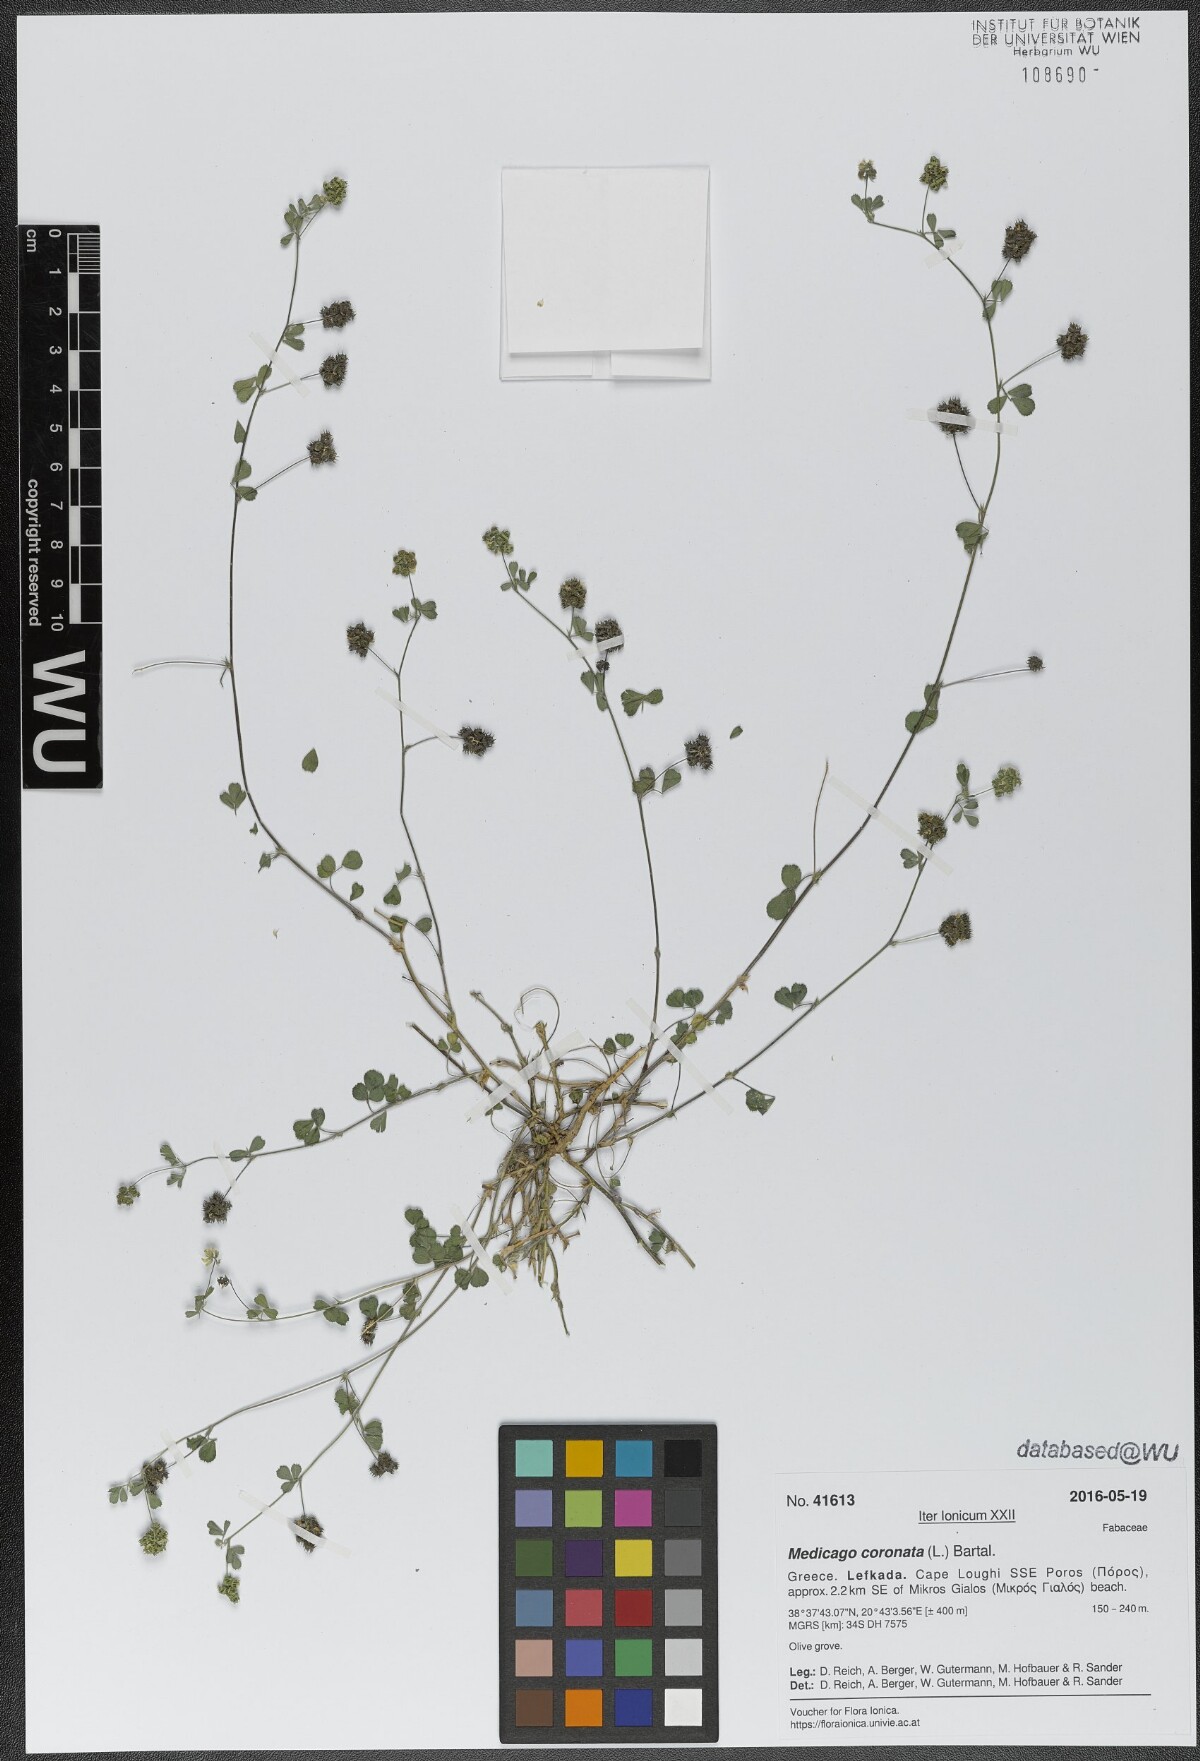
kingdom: Plantae
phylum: Tracheophyta
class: Magnoliopsida
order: Fabales
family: Fabaceae
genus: Medicago
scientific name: Medicago coronata
